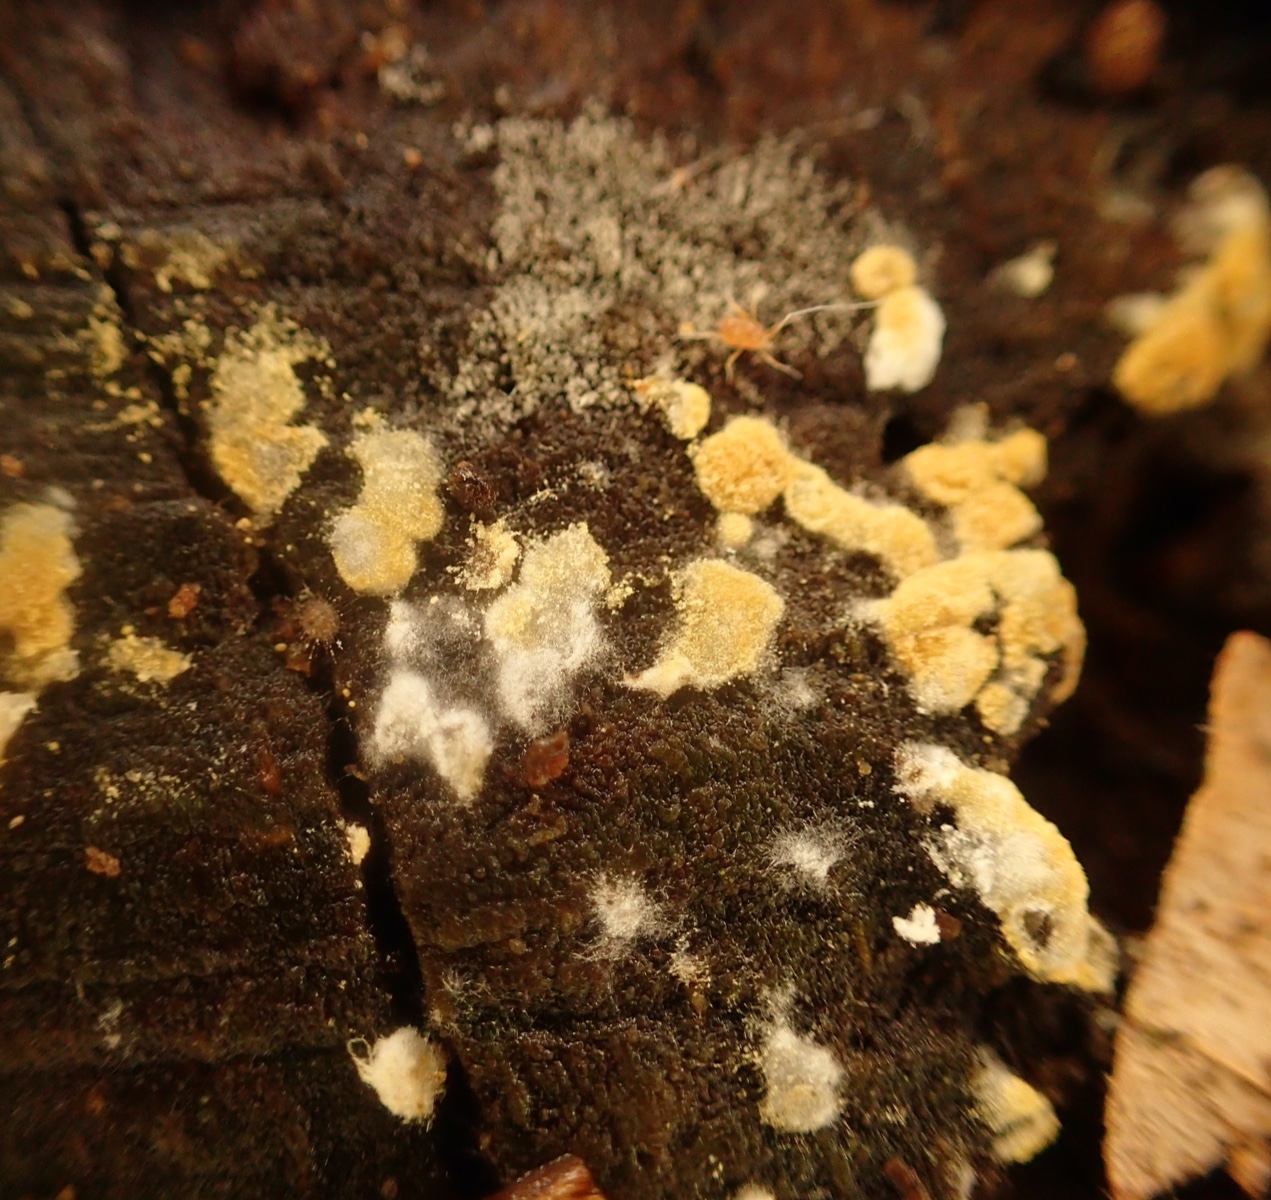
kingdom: Fungi
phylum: Basidiomycota
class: Agaricomycetes
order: Cantharellales
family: Botryobasidiaceae
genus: Botryobasidium
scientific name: Botryobasidium aureum
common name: gylden spindhinde
